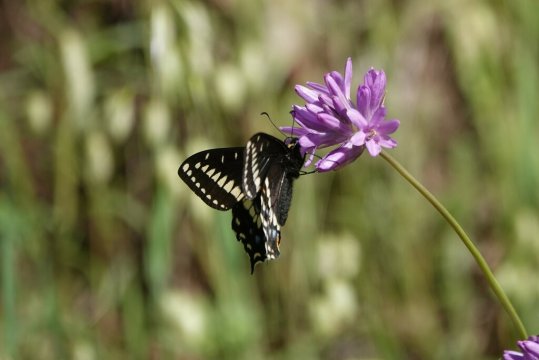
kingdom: Animalia
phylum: Arthropoda
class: Insecta
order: Lepidoptera
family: Papilionidae
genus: Papilio
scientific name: Papilio indra
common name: Indra Swallowtail
